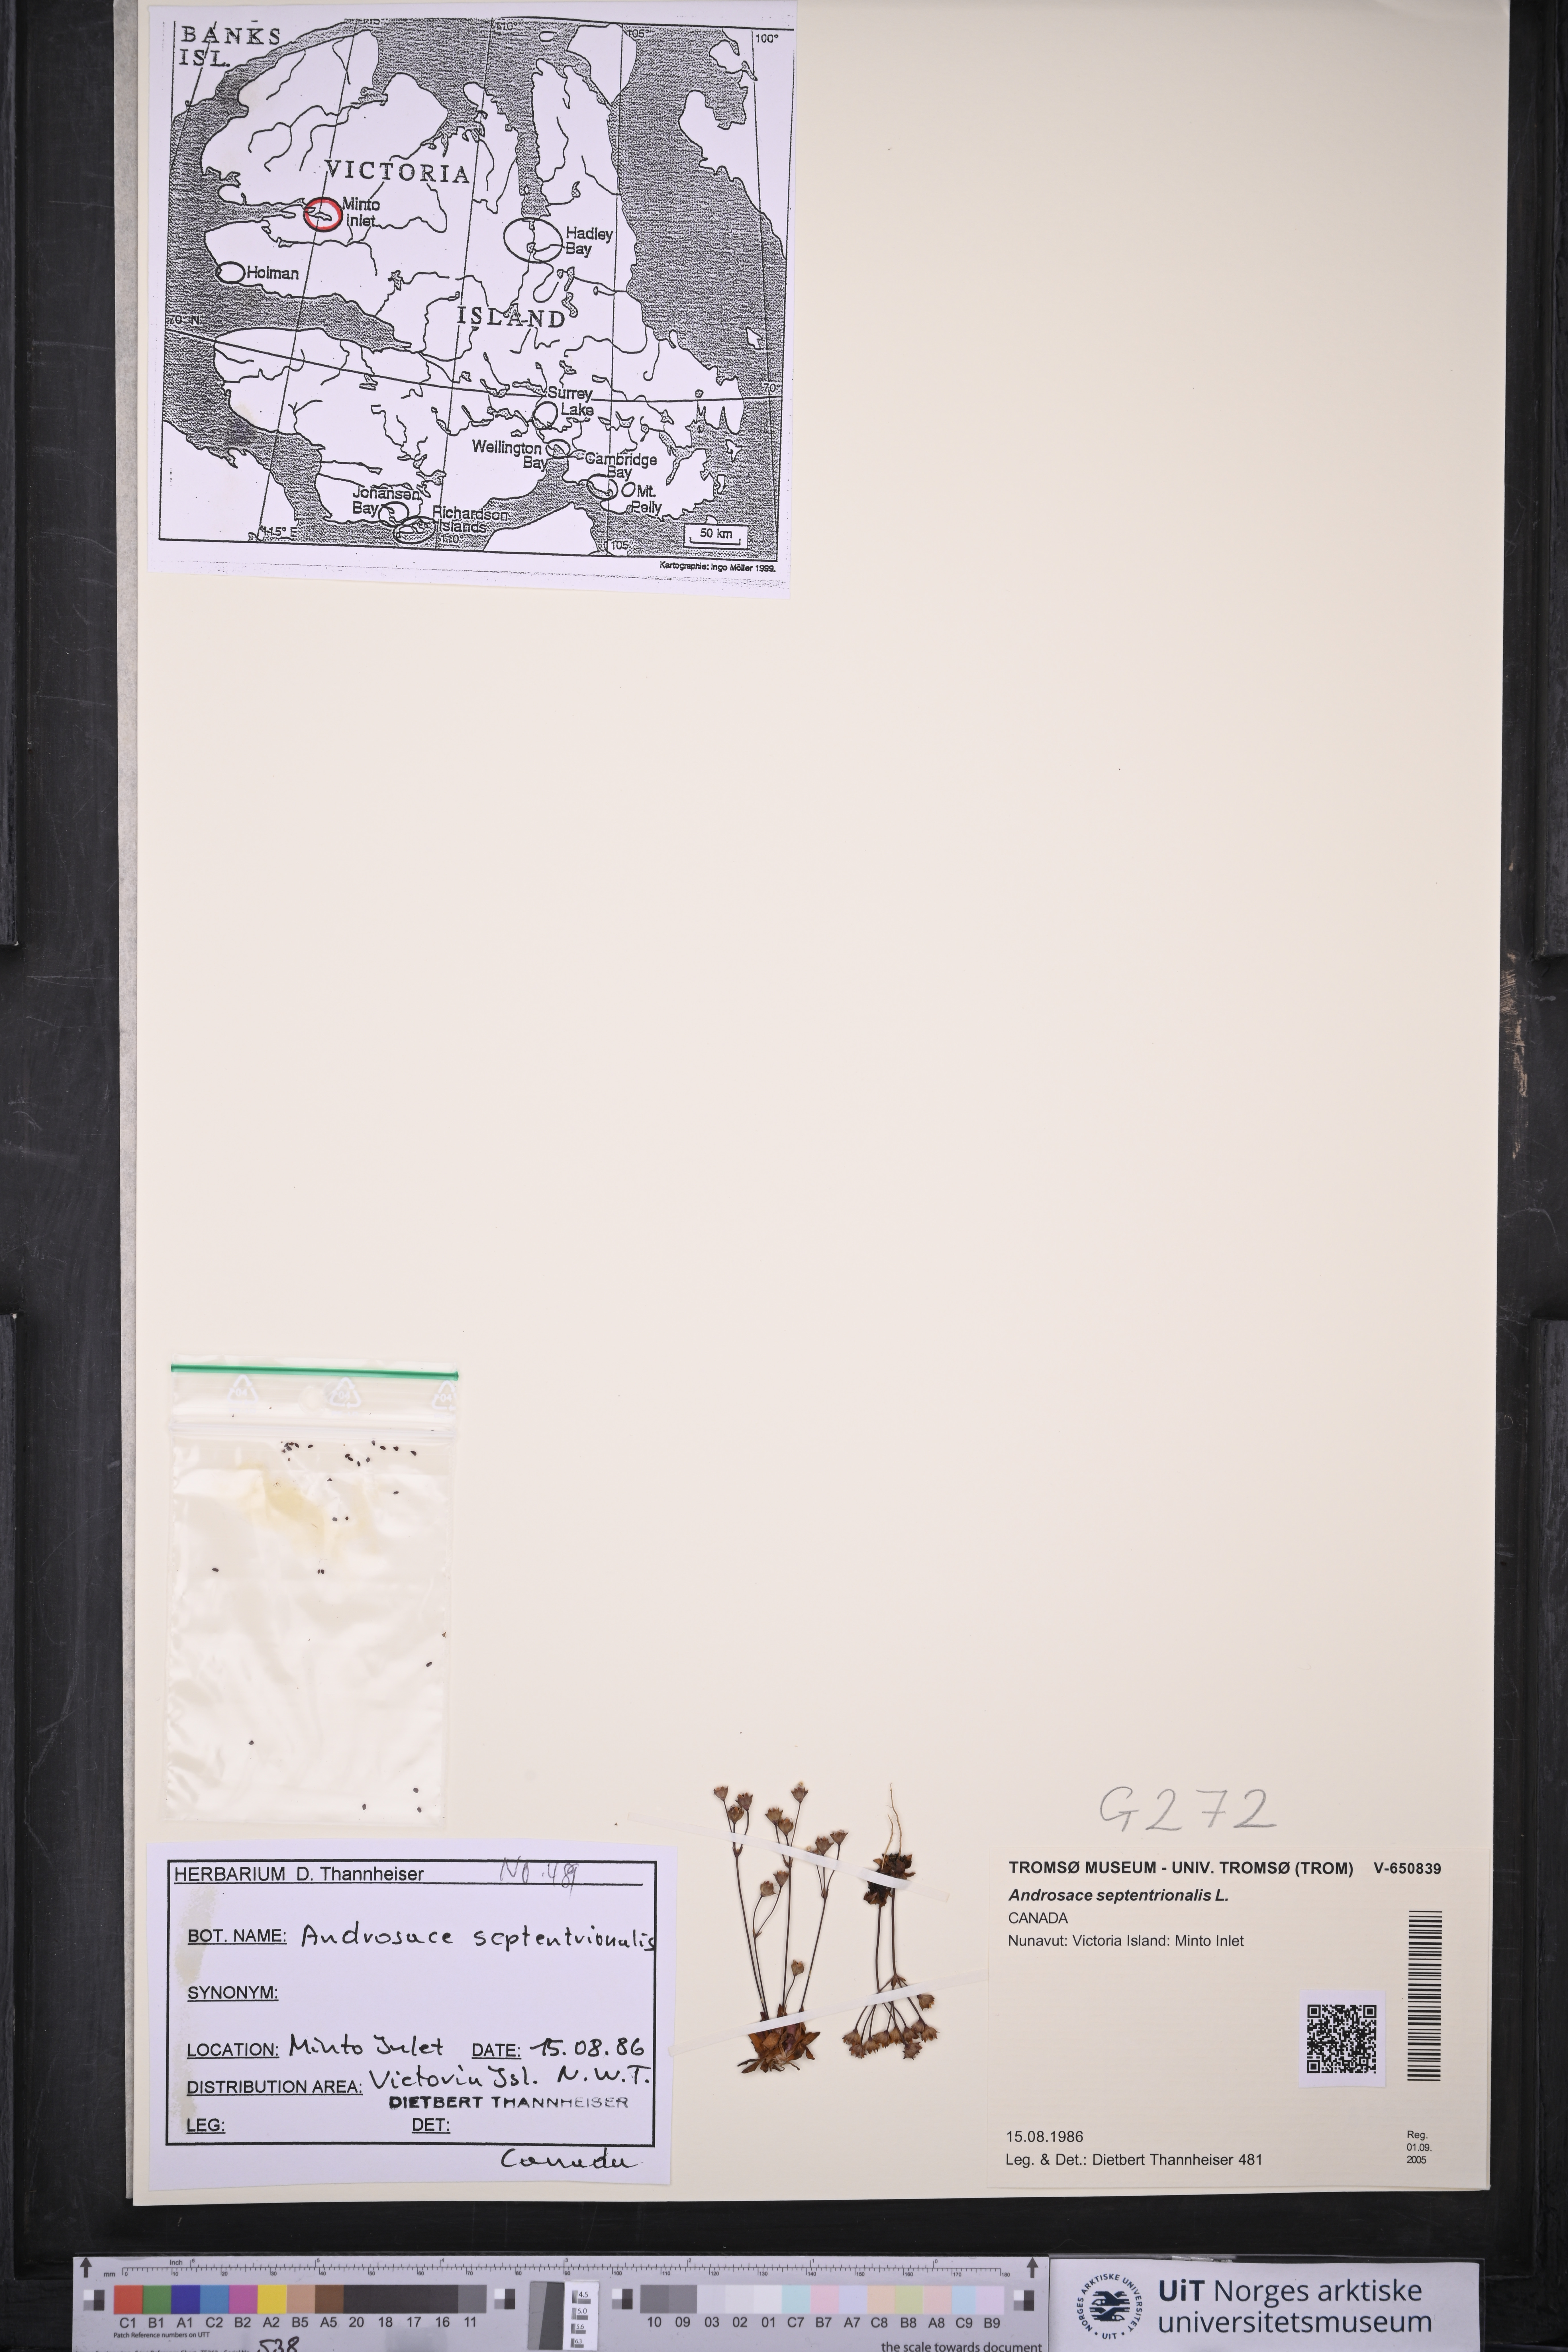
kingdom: Plantae
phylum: Tracheophyta
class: Magnoliopsida
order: Ericales
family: Primulaceae
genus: Androsace
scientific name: Androsace septentrionalis
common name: Hairy northern fairy-candelabra
